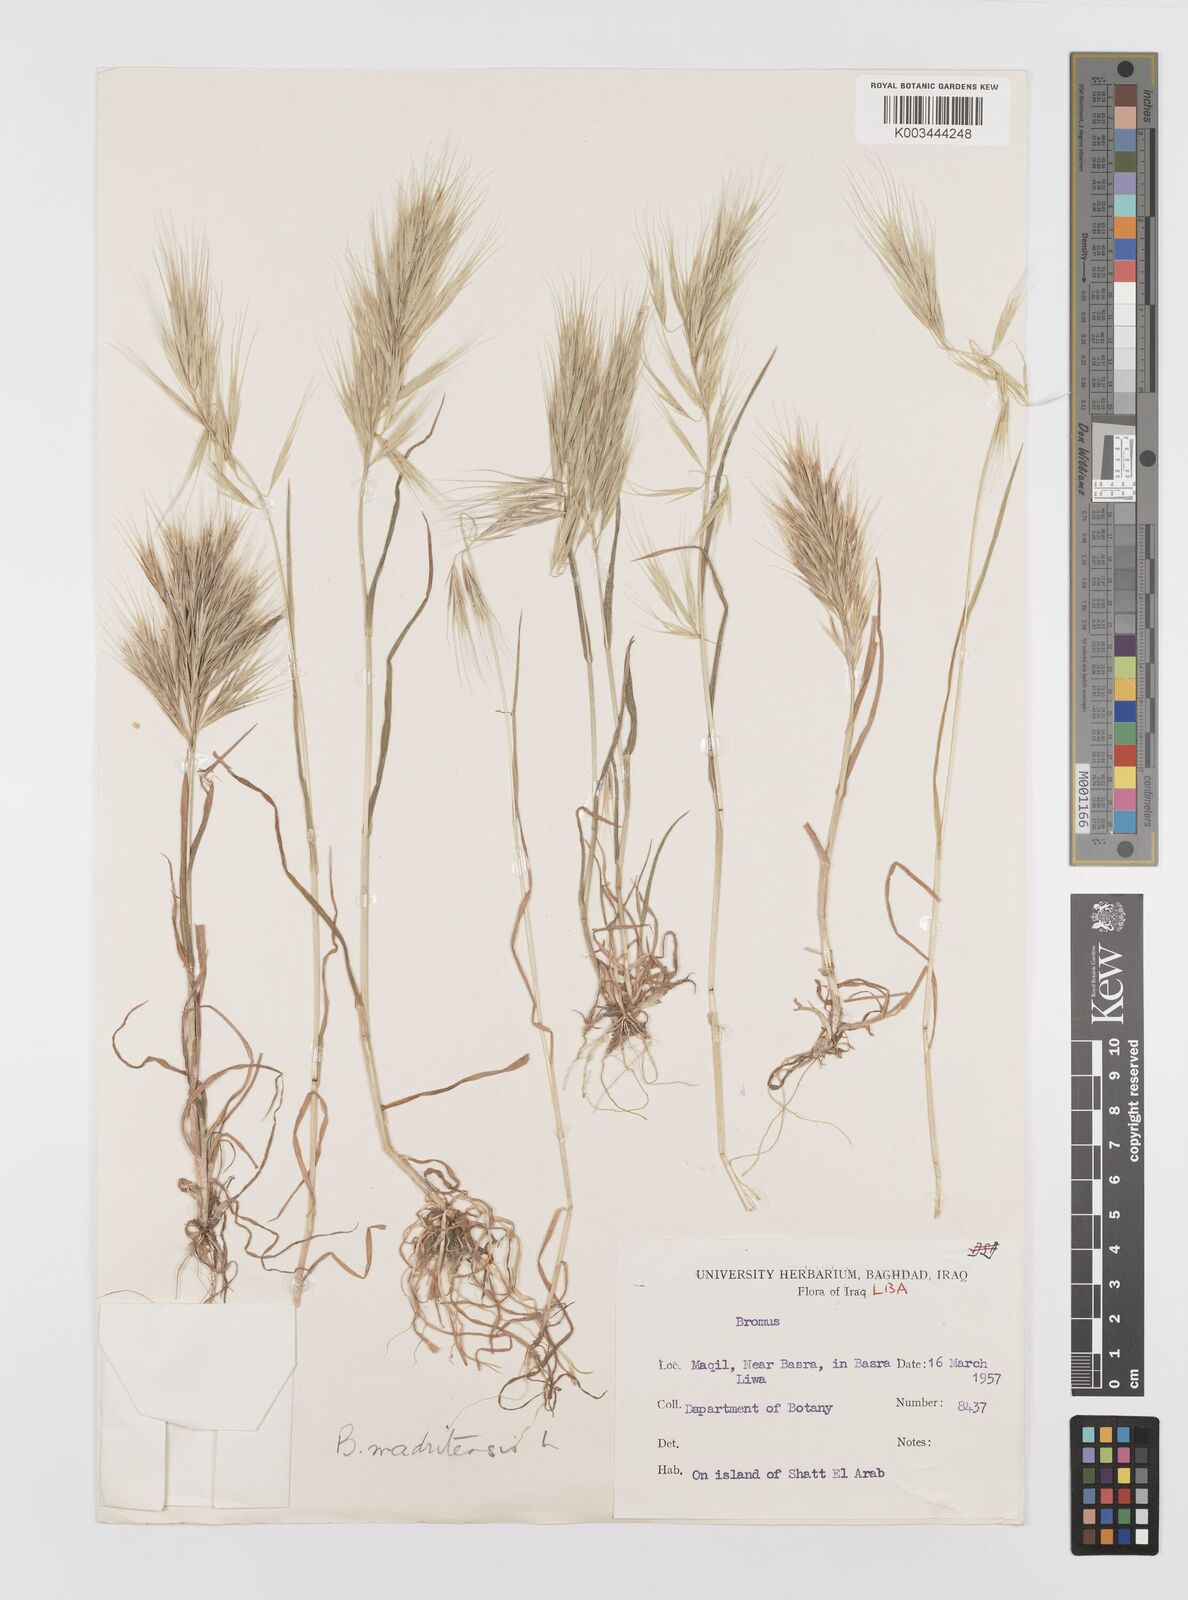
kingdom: Plantae
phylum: Tracheophyta
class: Liliopsida
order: Poales
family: Poaceae
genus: Bromus
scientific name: Bromus madritensis
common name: Compact brome
